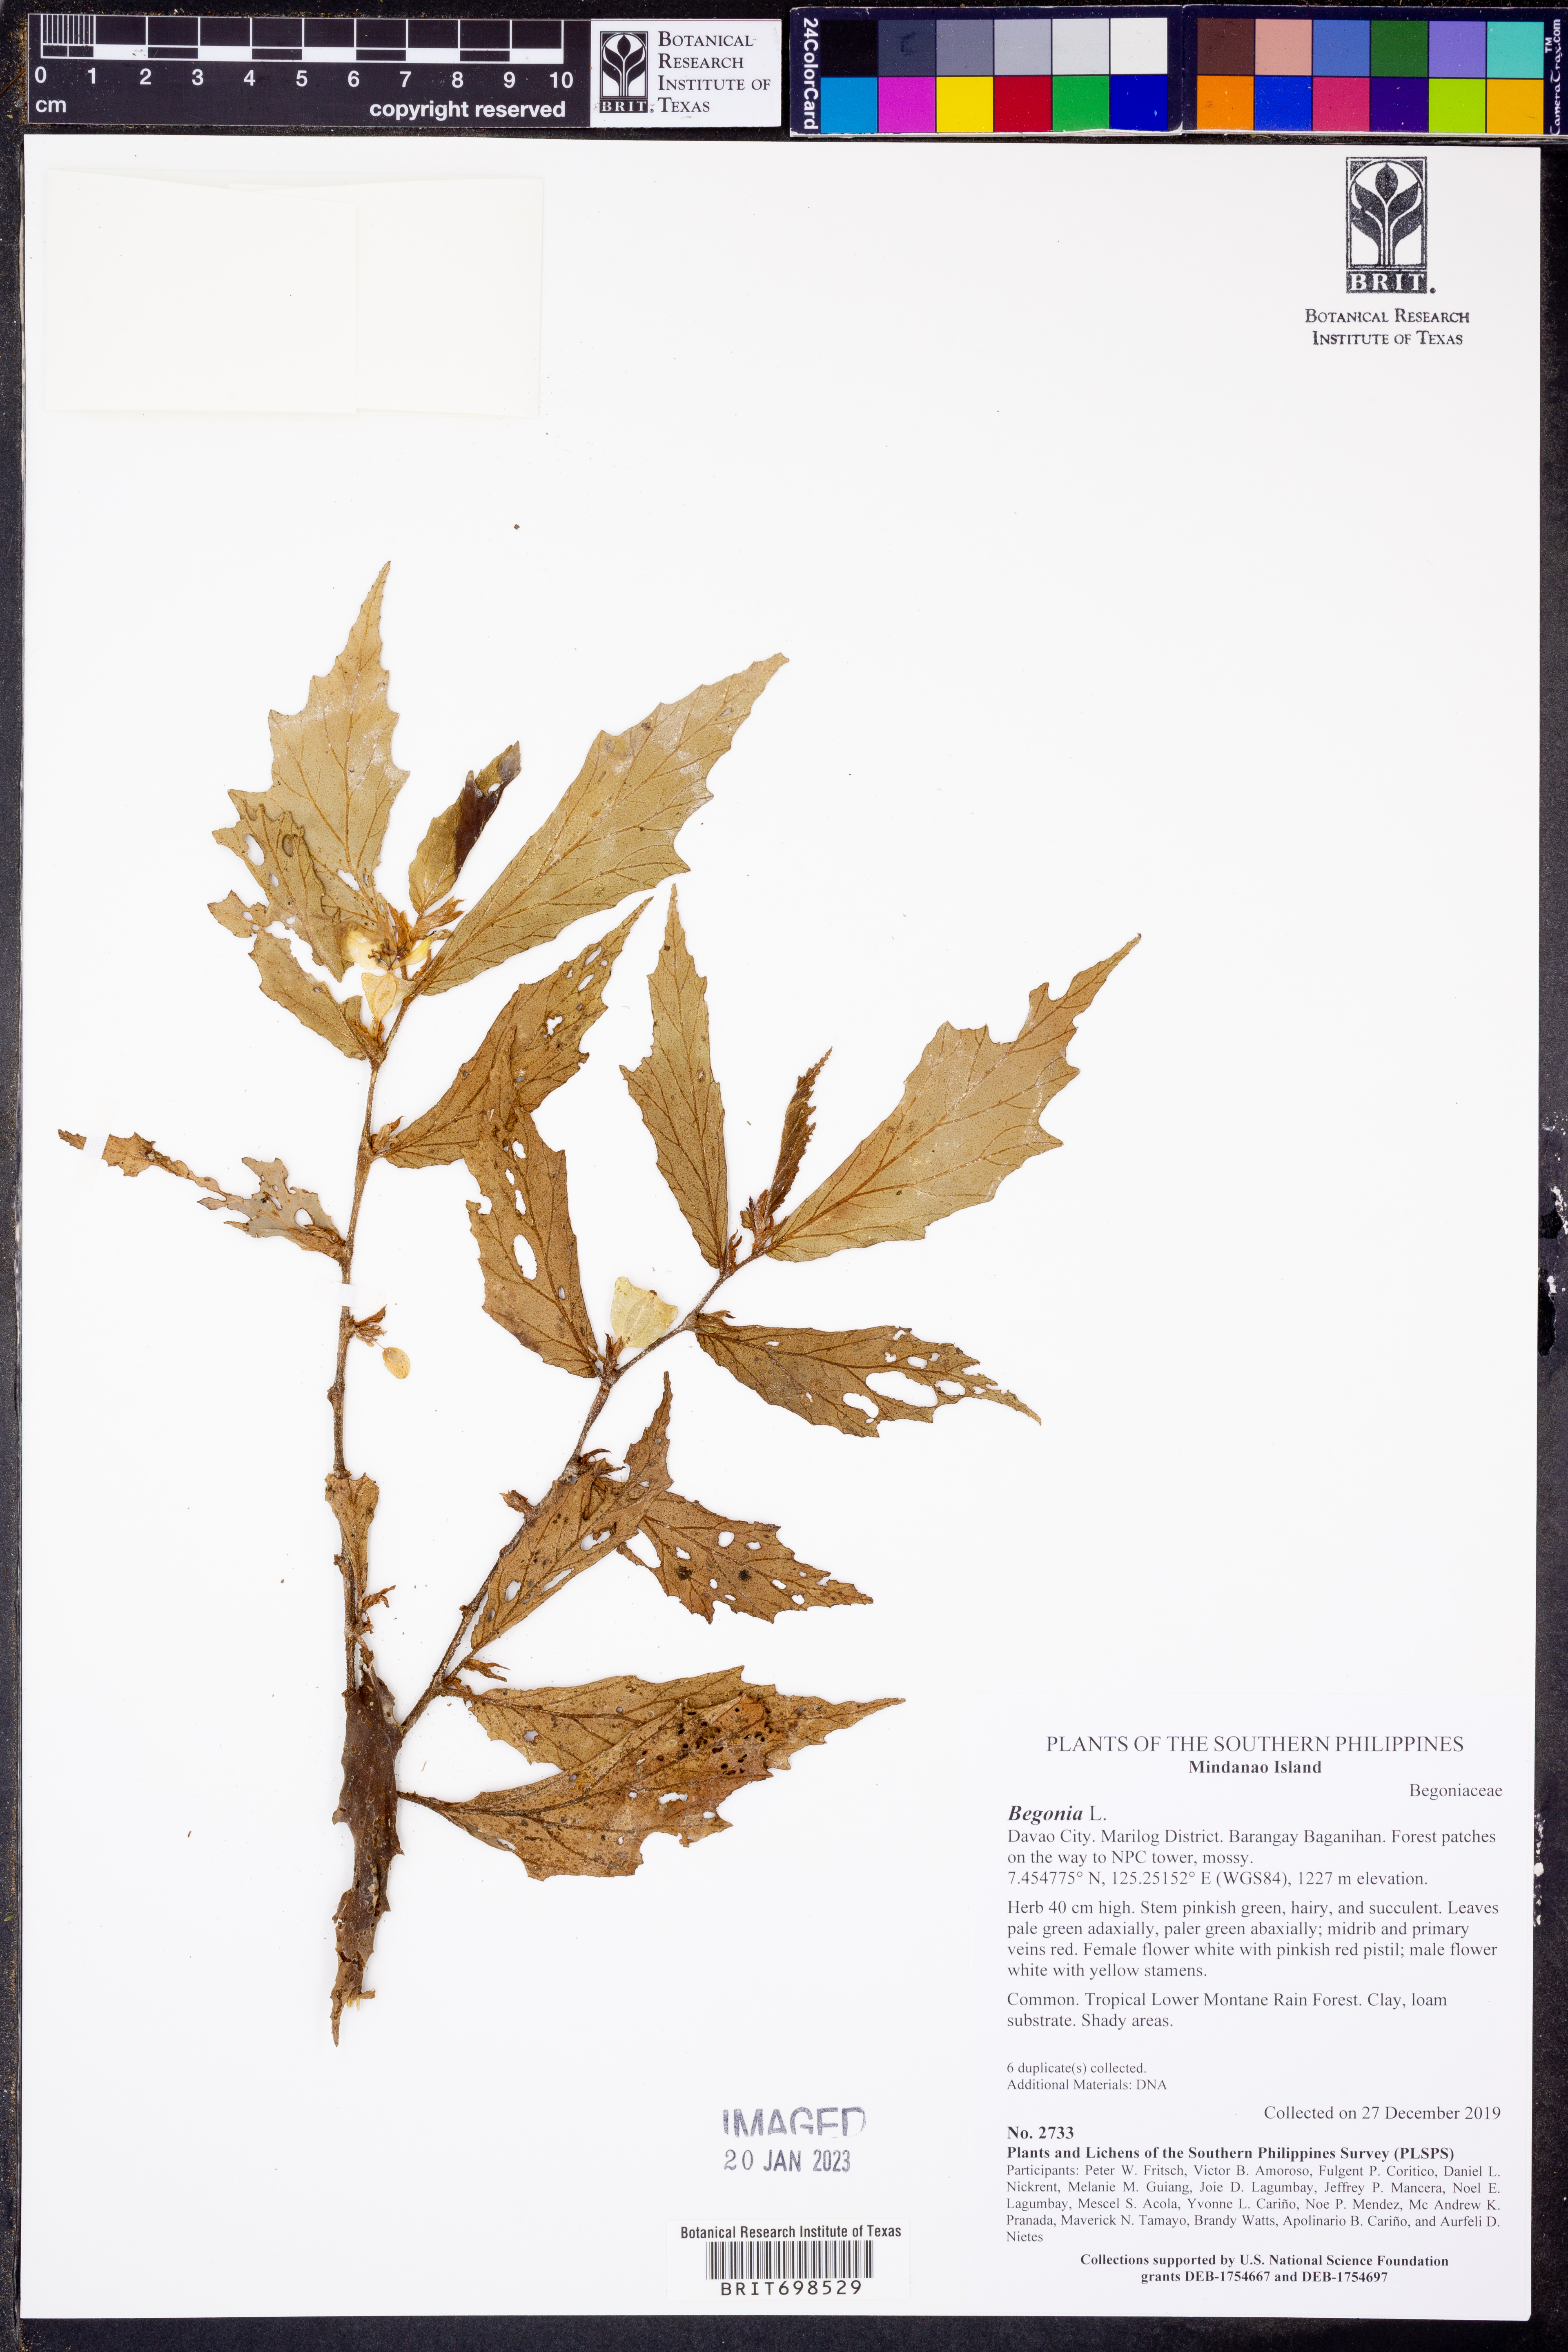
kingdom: Plantae
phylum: Tracheophyta
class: Magnoliopsida
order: Cucurbitales
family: Begoniaceae
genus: Begonia
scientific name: Begonia
